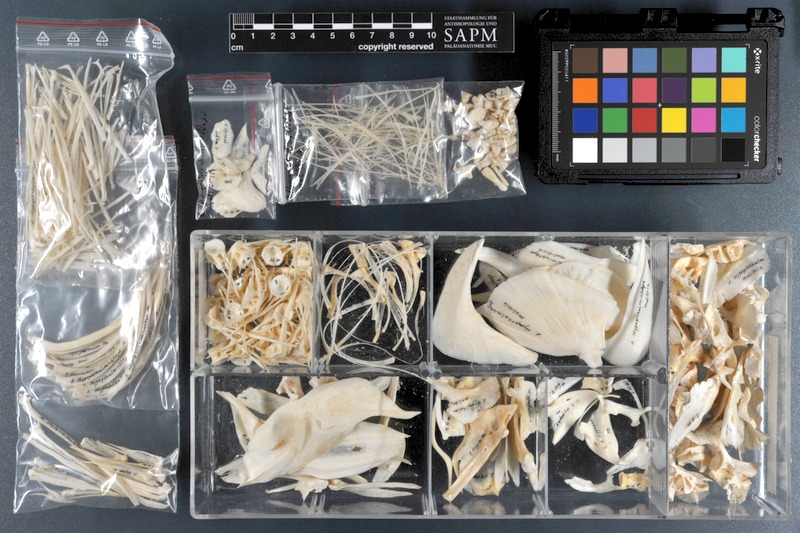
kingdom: Animalia
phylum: Chordata
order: Cypriniformes
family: Cyprinidae
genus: Hypophthalmichthys
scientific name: Hypophthalmichthys molitrix
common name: Silver carp
